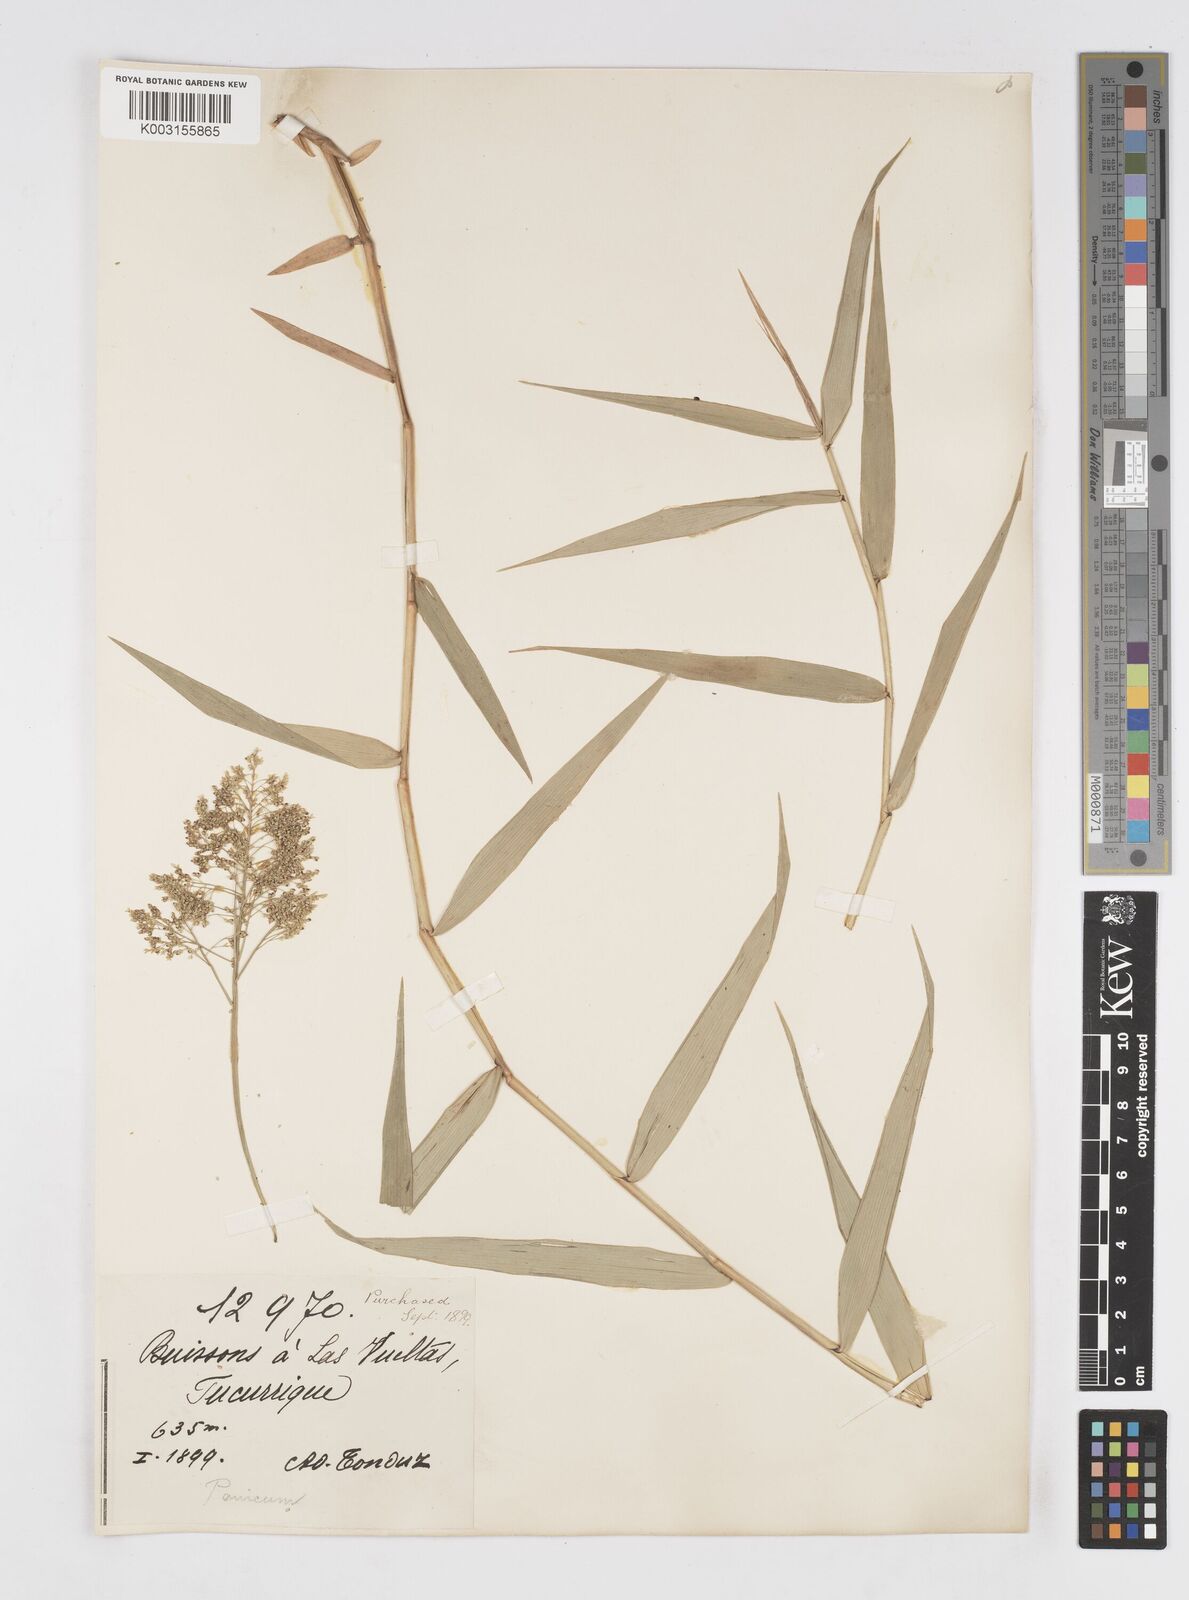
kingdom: Plantae
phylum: Tracheophyta
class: Liliopsida
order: Poales
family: Poaceae
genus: Isachne
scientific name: Isachne arundinacea
